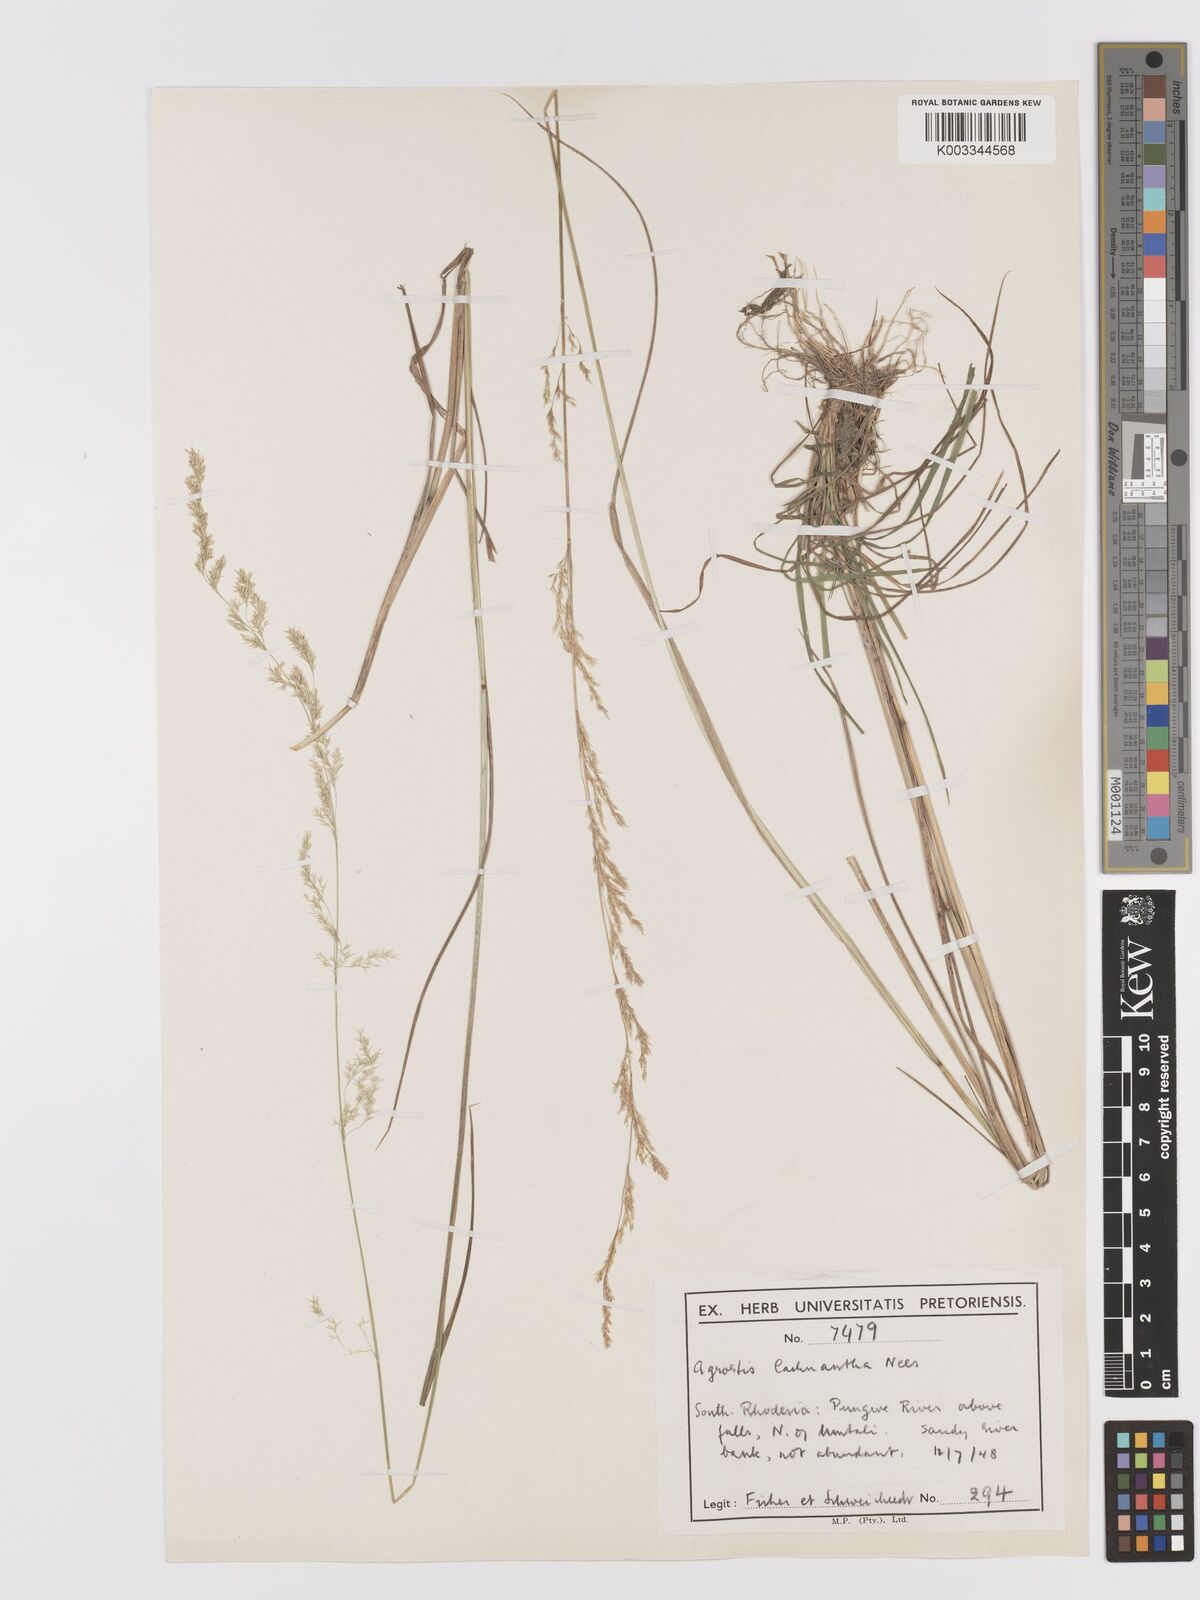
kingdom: Plantae
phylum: Tracheophyta
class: Liliopsida
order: Poales
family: Poaceae
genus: Lachnagrostis
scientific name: Lachnagrostis lachnantha
